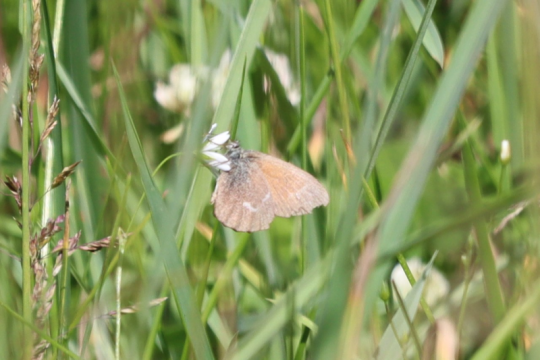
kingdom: Animalia
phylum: Arthropoda
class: Insecta
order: Lepidoptera
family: Nymphalidae
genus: Coenonympha
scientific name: Coenonympha
